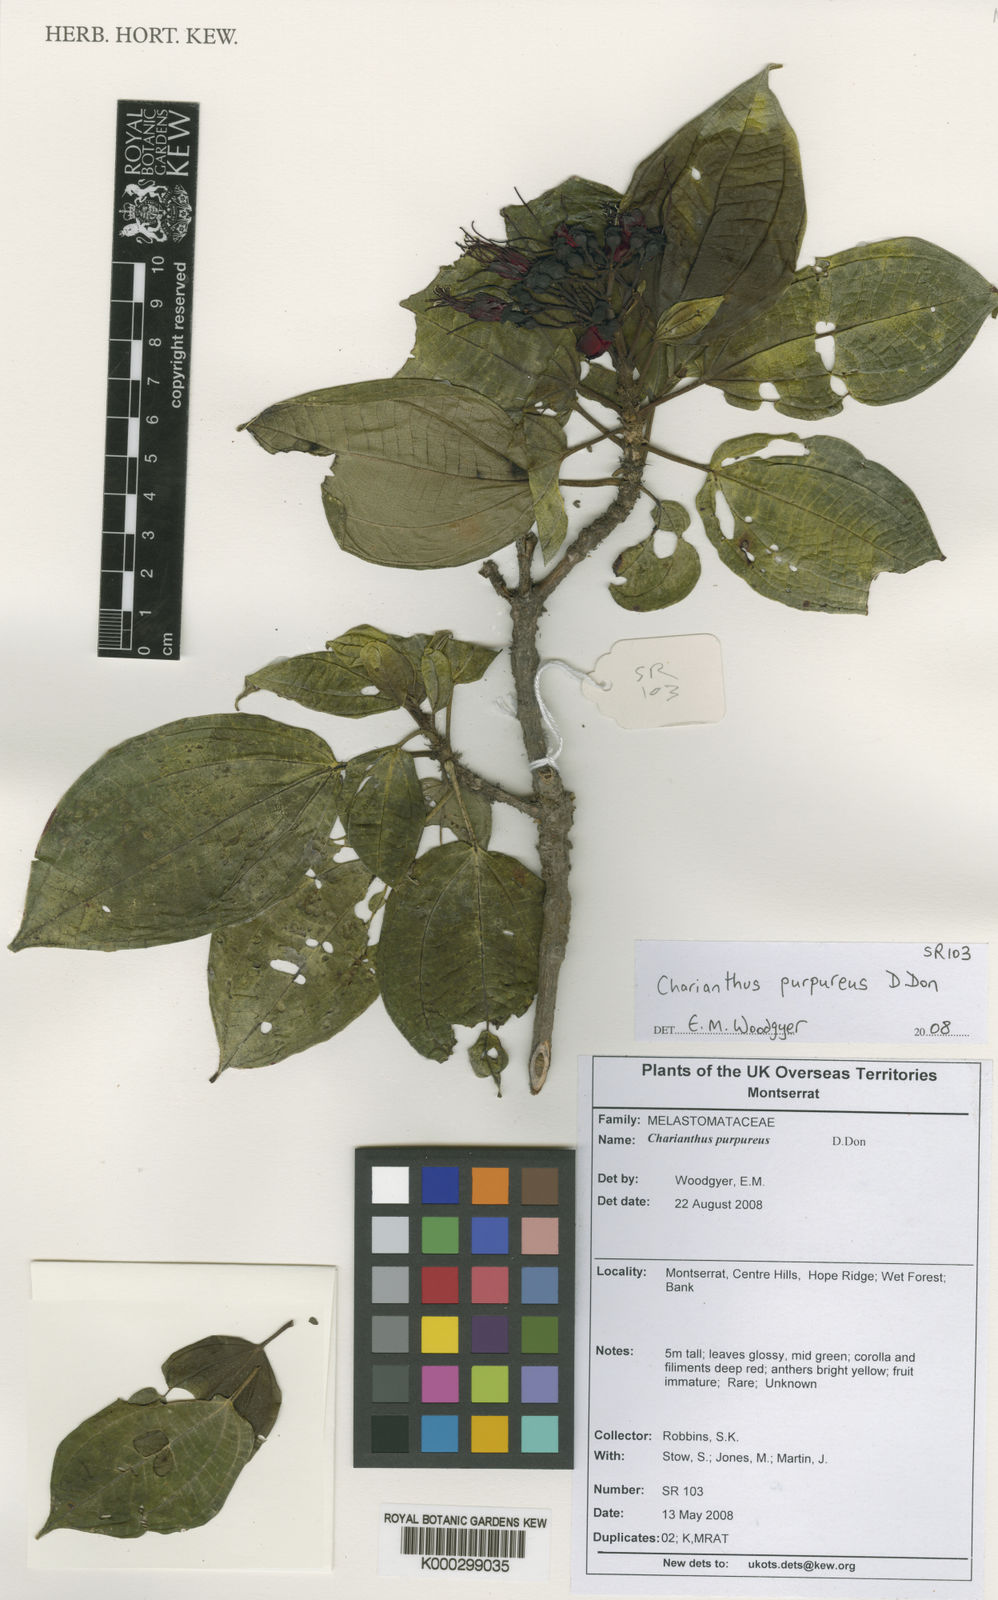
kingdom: Plantae
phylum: Tracheophyta
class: Magnoliopsida
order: Myrtales
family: Melastomataceae
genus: Miconia
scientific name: Miconia purpurea
